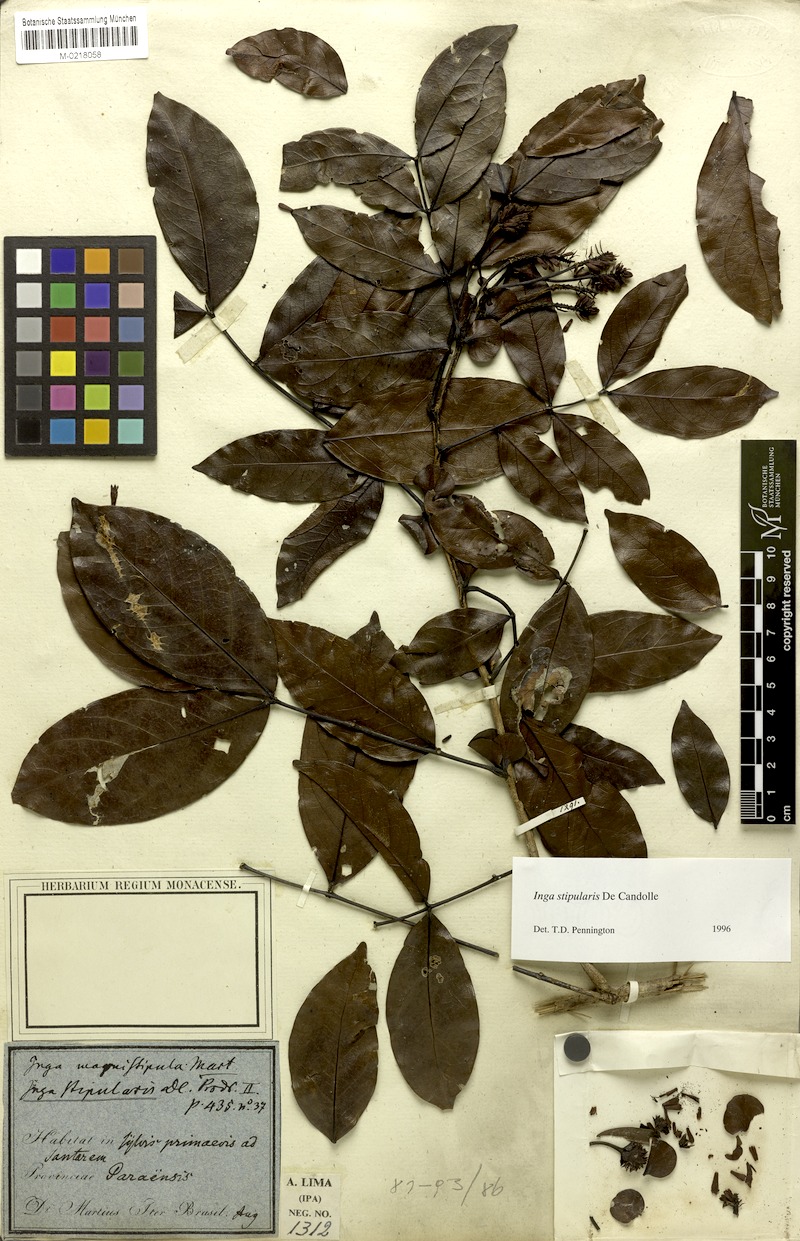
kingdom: Plantae
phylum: Tracheophyta
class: Magnoliopsida
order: Fabales
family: Fabaceae
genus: Inga
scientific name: Inga stipularis
